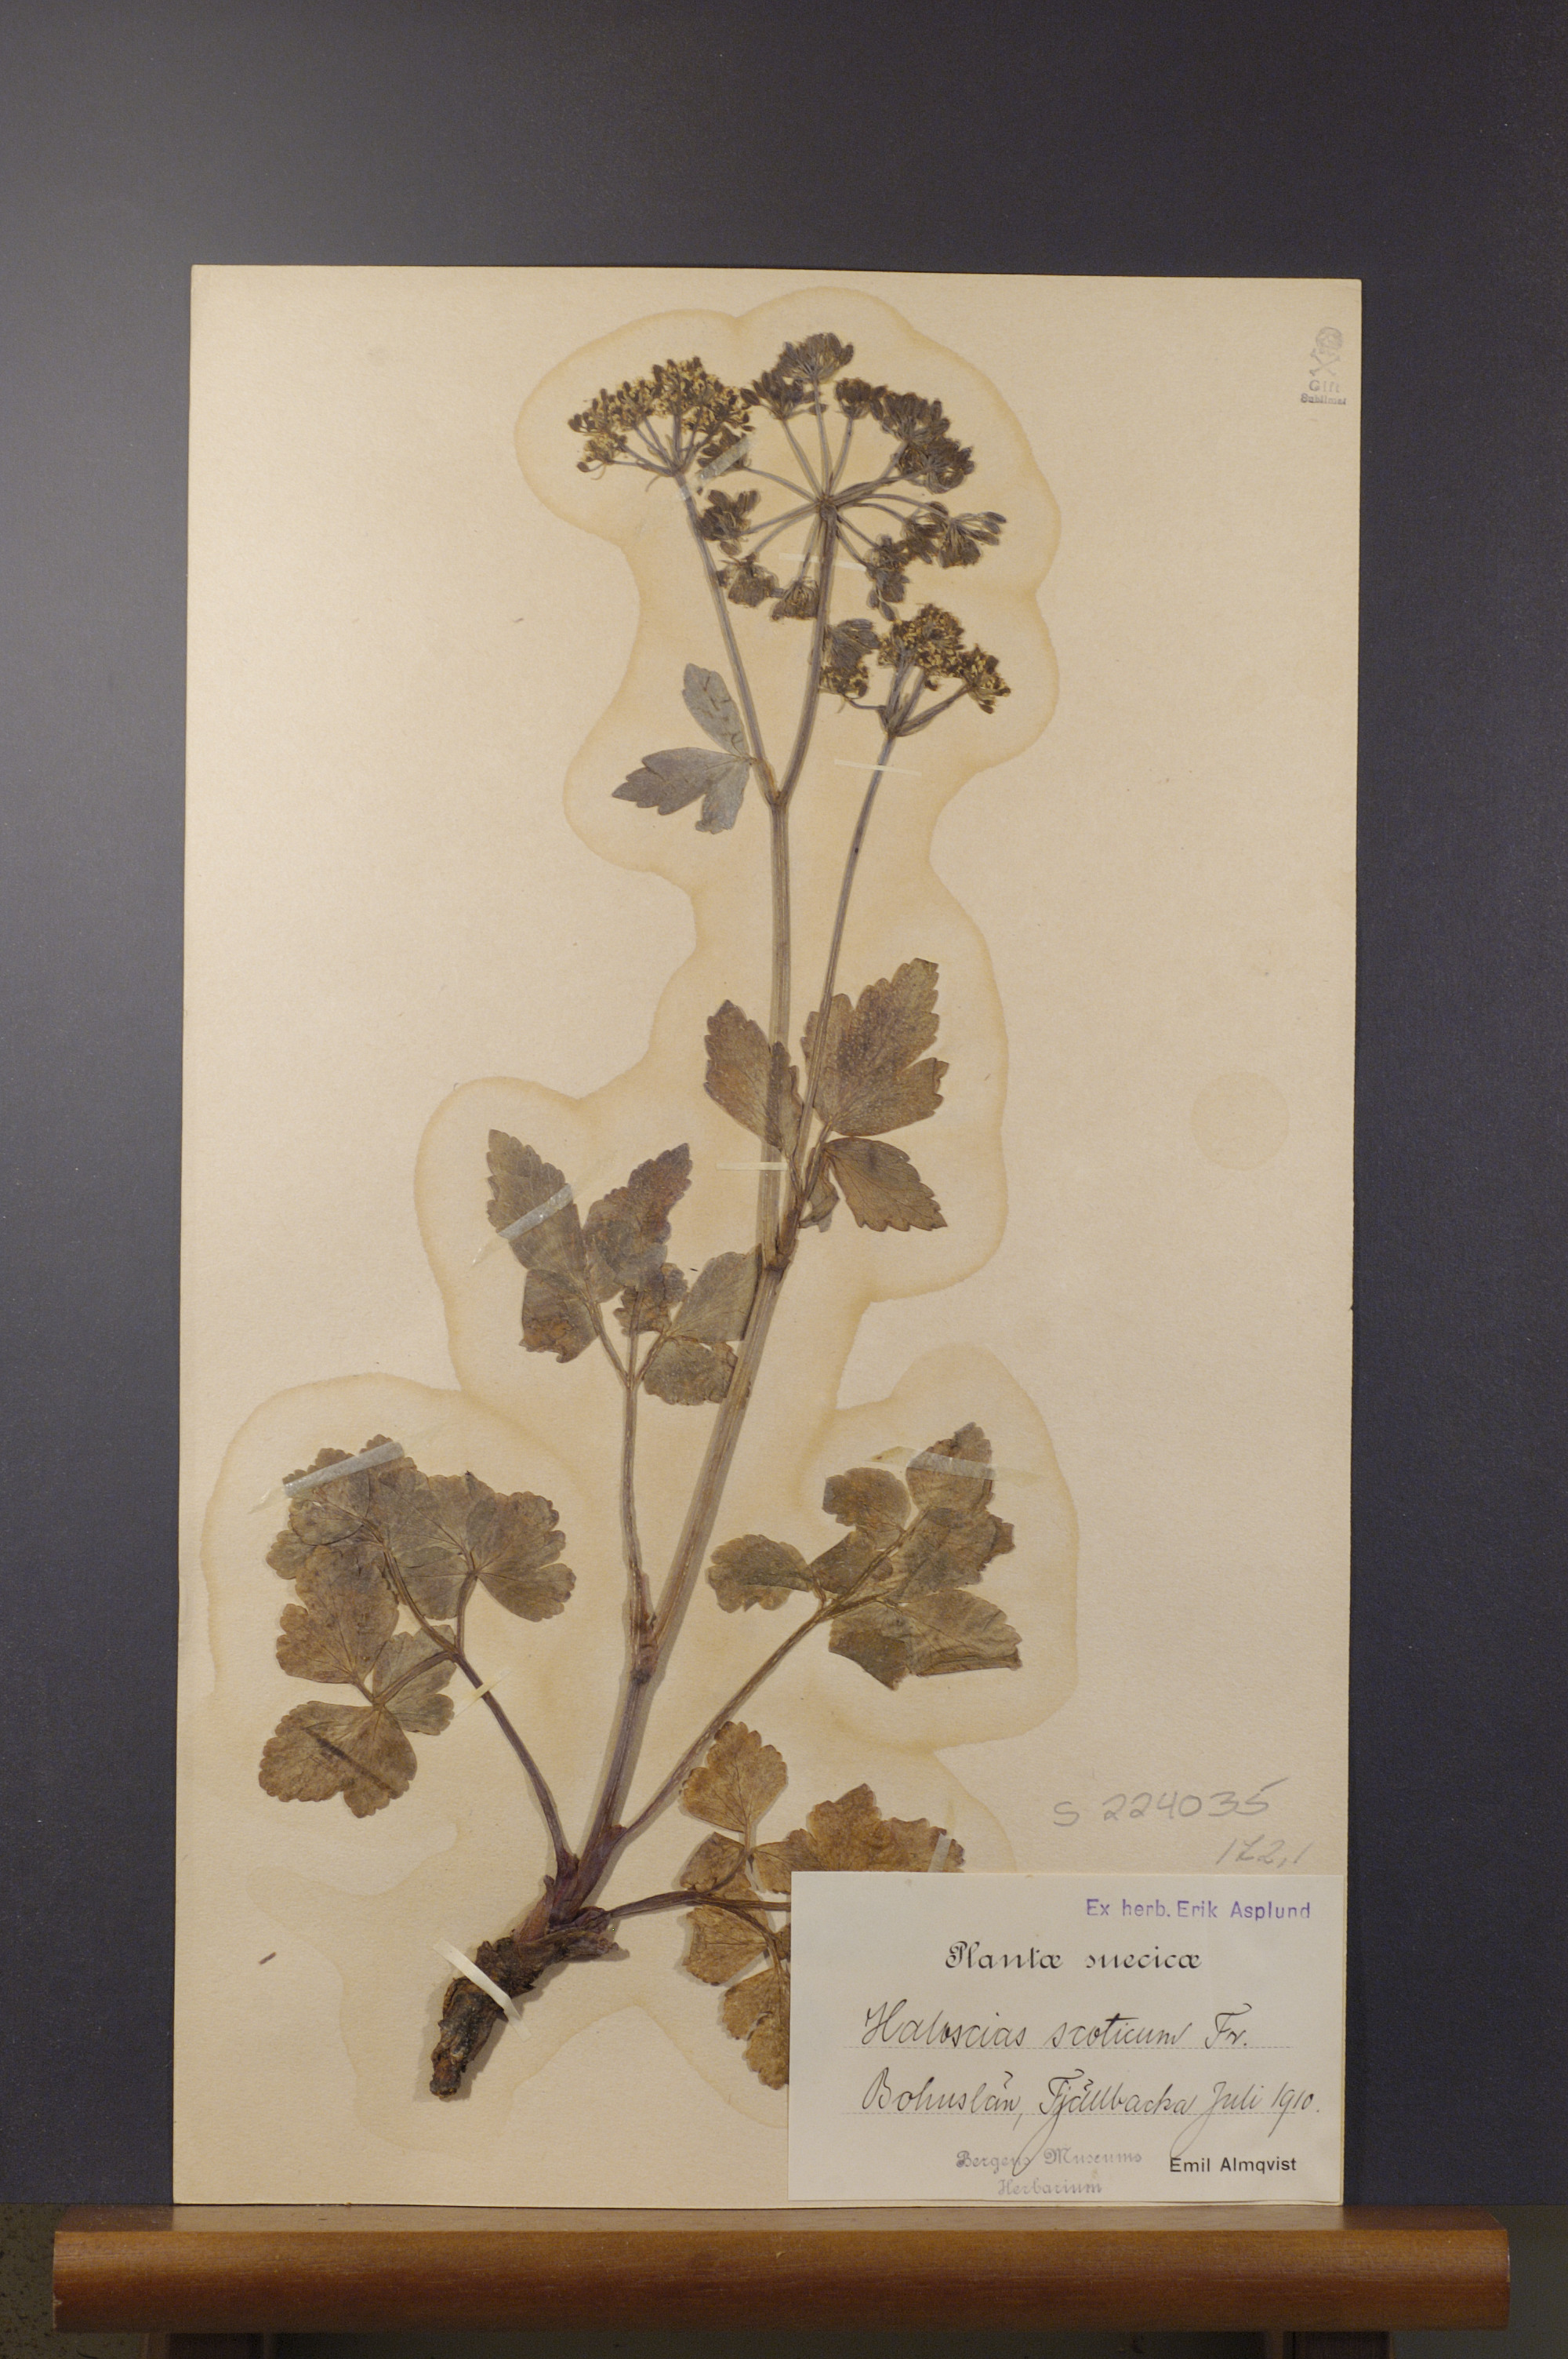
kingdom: Plantae
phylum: Tracheophyta
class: Magnoliopsida
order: Apiales
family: Apiaceae
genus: Ligusticum
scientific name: Ligusticum scothicum
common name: Beach lovage
